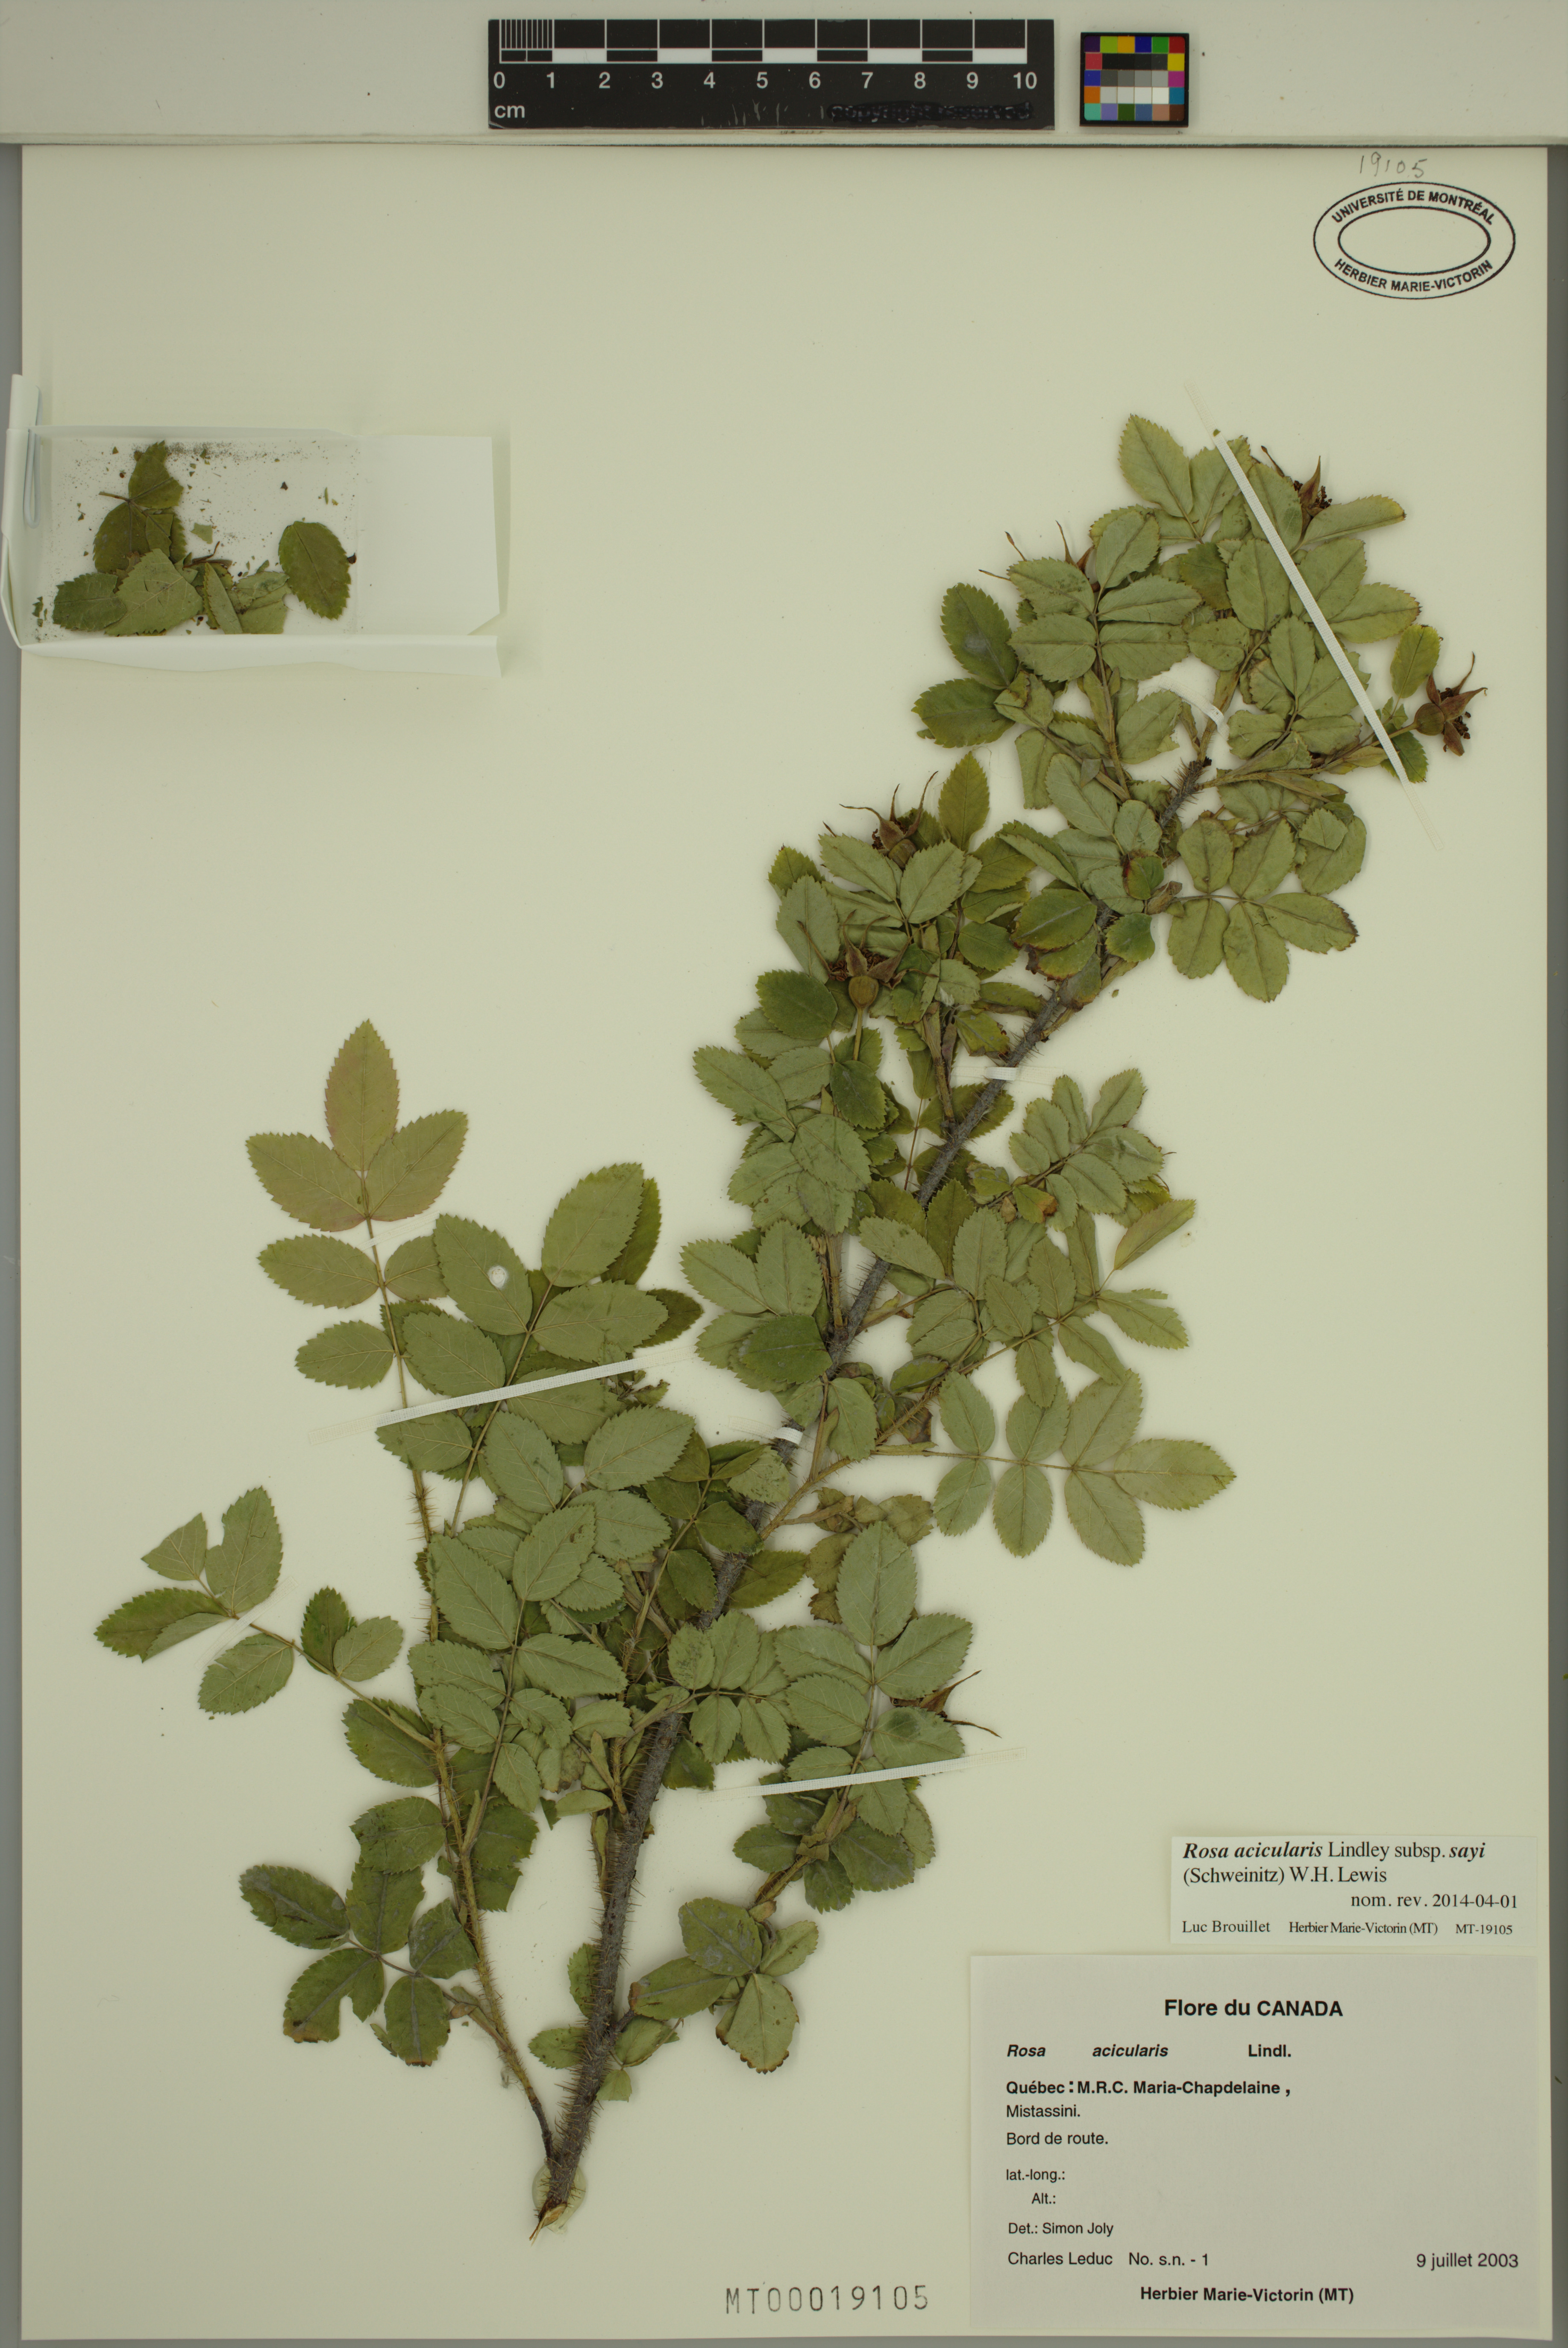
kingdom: Plantae
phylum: Tracheophyta
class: Magnoliopsida
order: Rosales
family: Rosaceae
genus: Rosa
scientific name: Rosa acicularis
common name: Prickly rose
